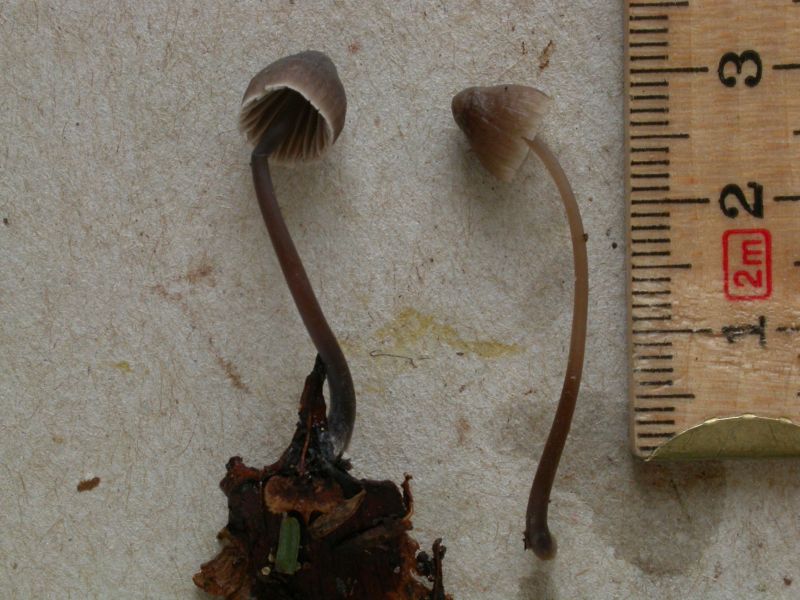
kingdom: Fungi
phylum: Basidiomycota
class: Agaricomycetes
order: Agaricales
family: Mycenaceae
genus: Mycena
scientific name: Mycena leptocephala
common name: klor-huesvamp
